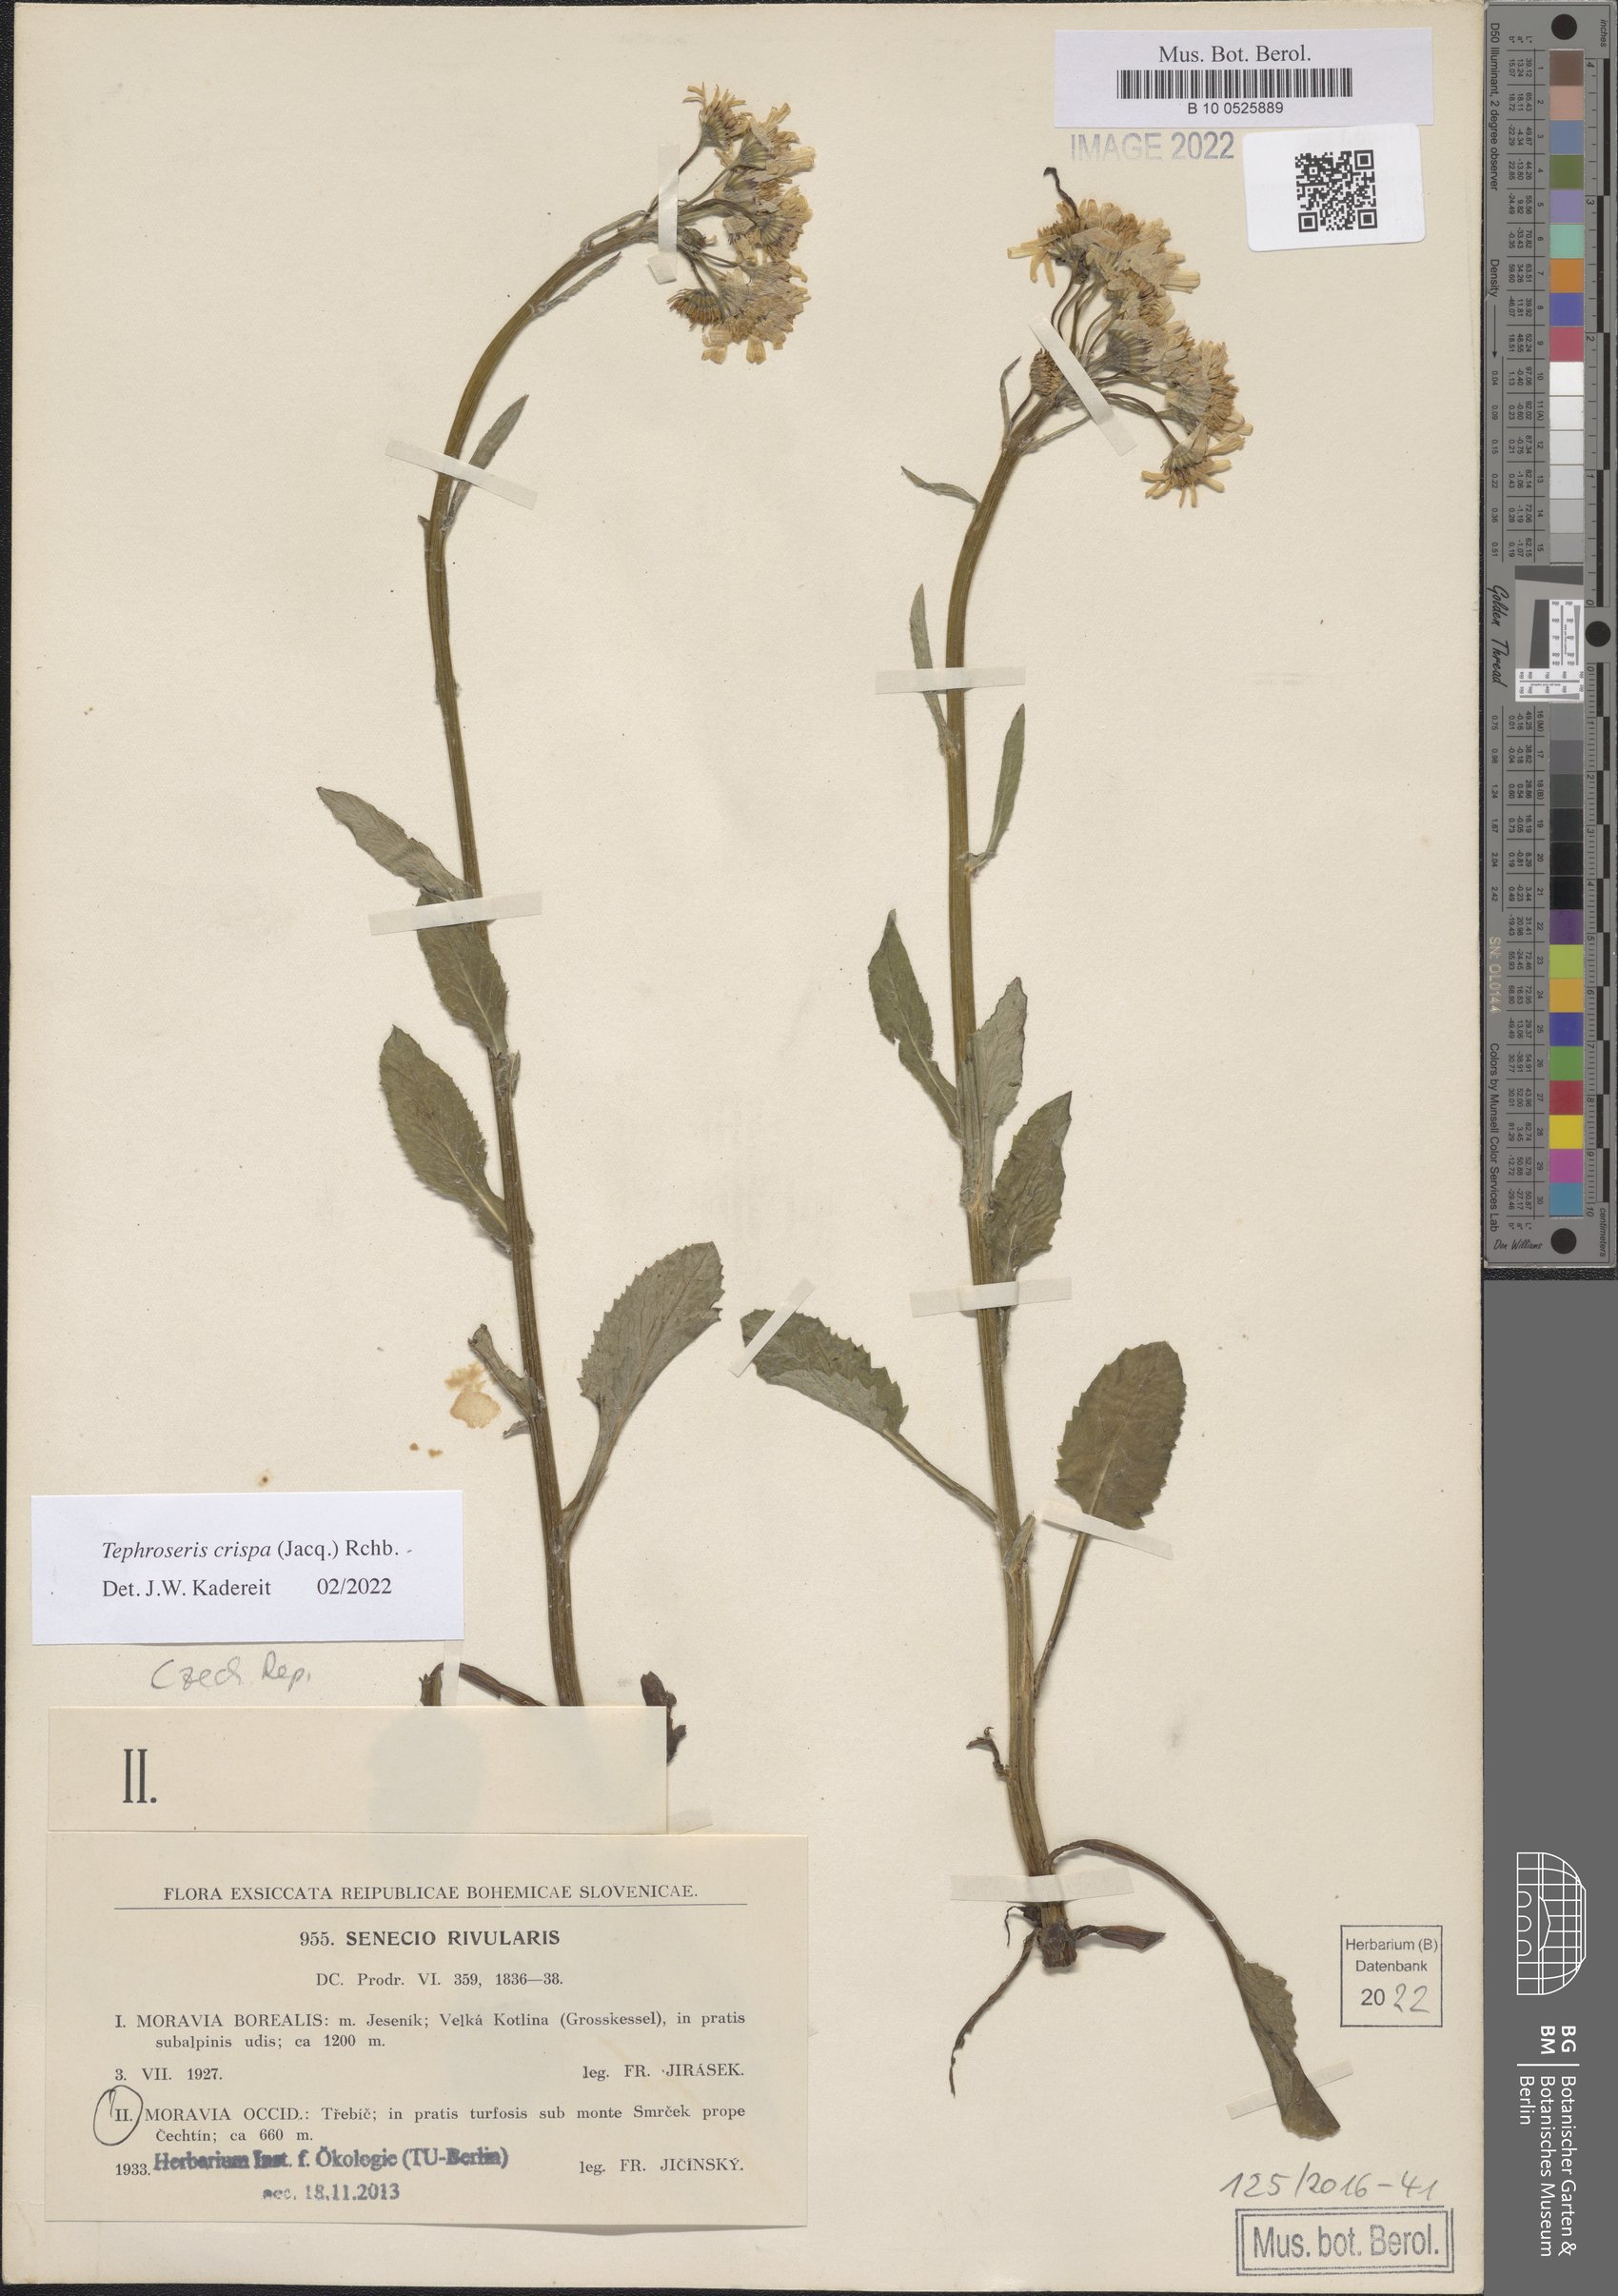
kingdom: Plantae
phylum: Tracheophyta
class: Magnoliopsida
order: Asterales
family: Asteraceae
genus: Tephroseris
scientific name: Tephroseris crispa
